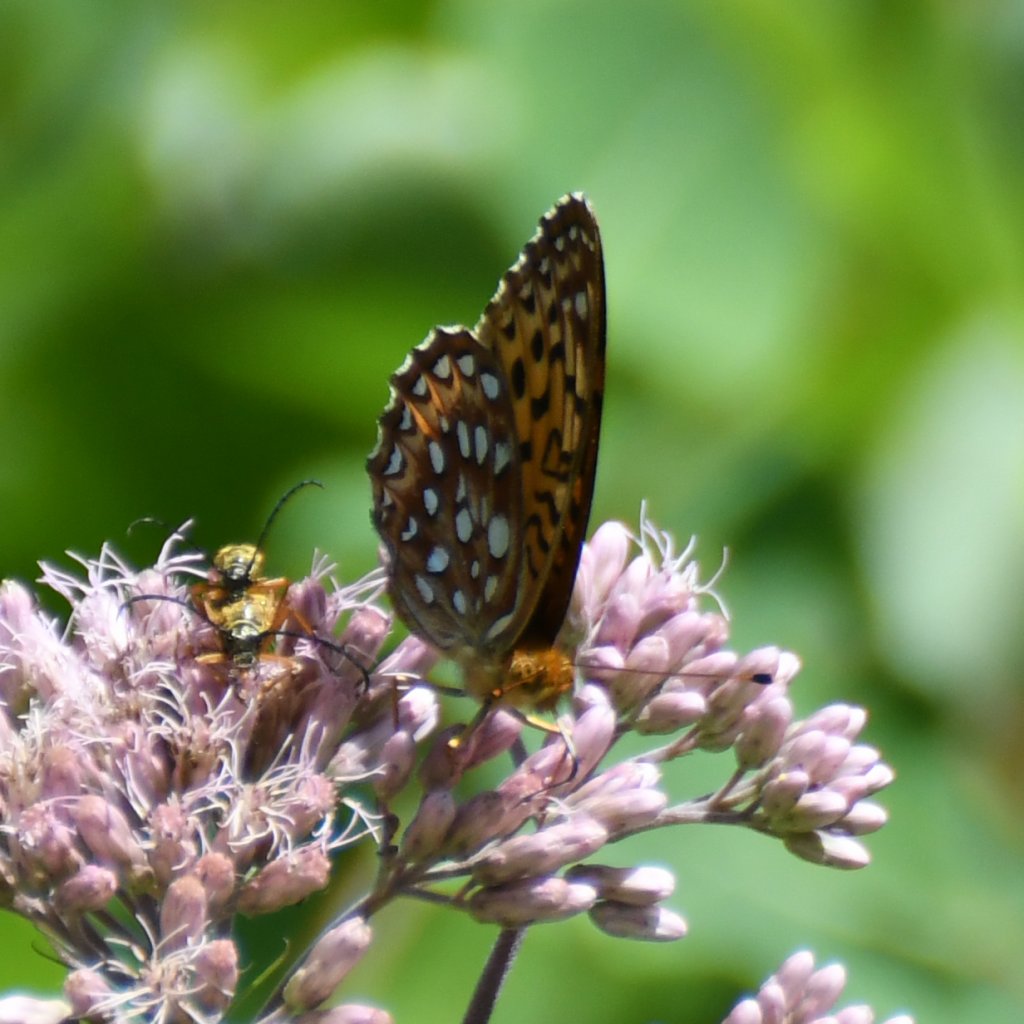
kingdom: Animalia
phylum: Arthropoda
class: Insecta
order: Lepidoptera
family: Nymphalidae
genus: Speyeria
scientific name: Speyeria aphrodite
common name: Aphrodite Fritillary
